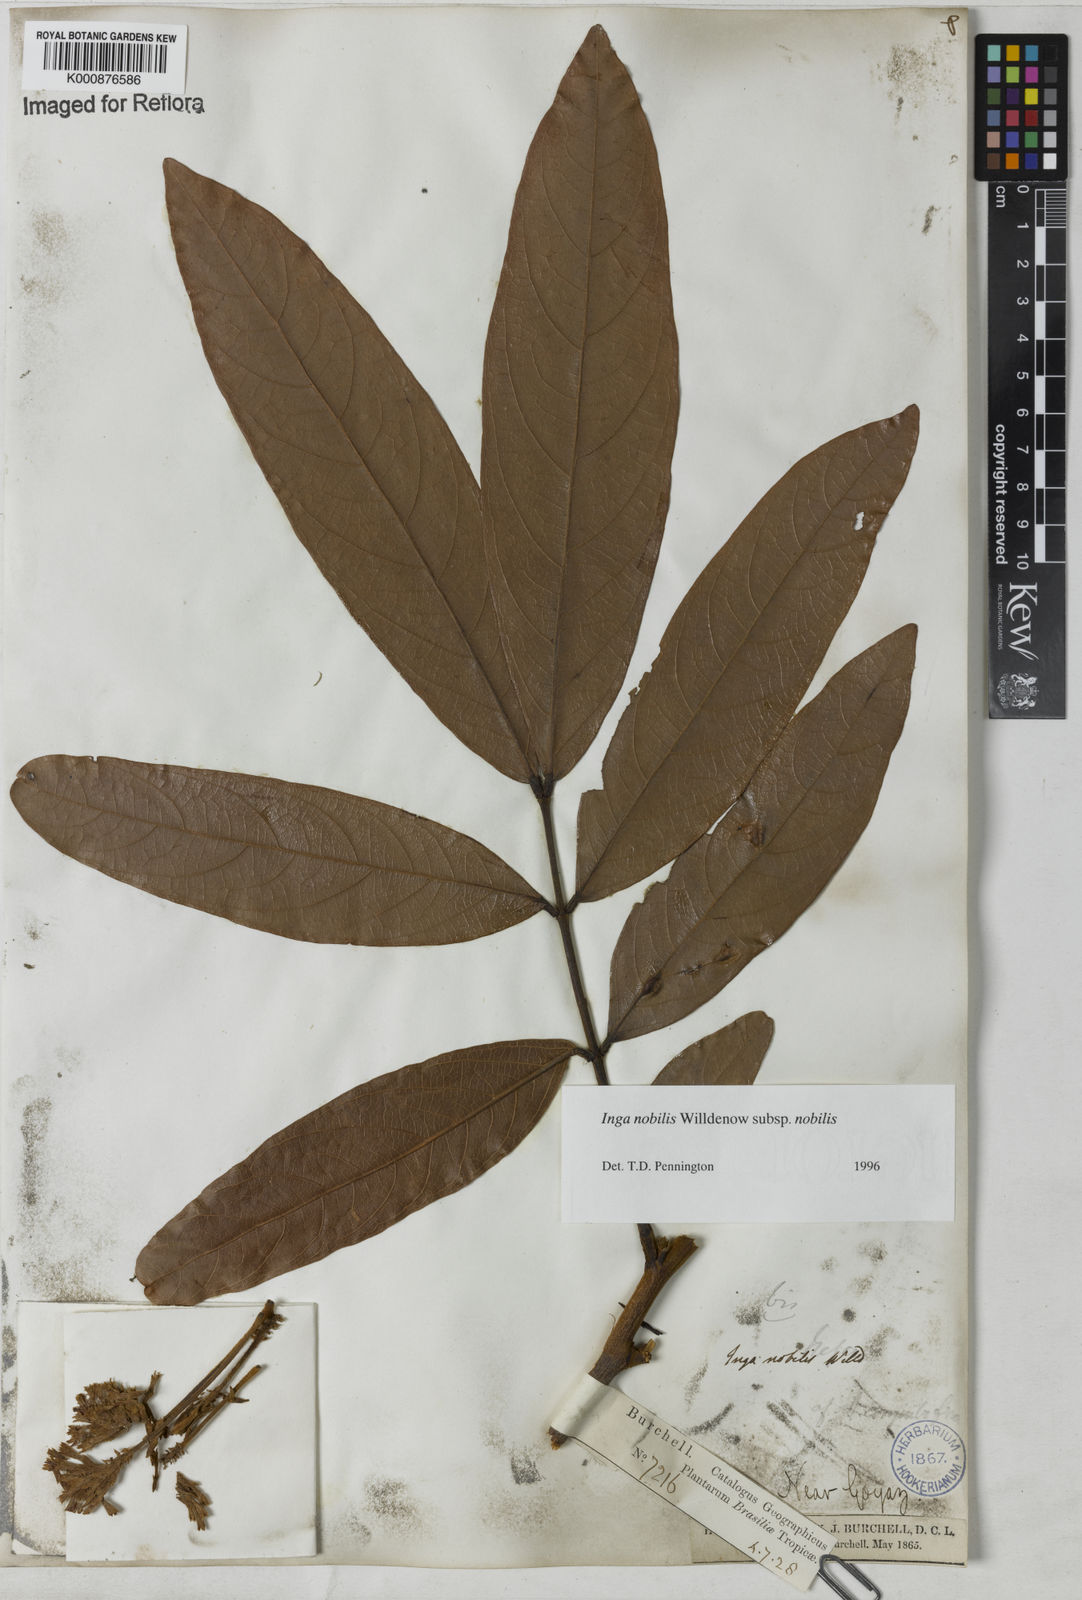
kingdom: Plantae
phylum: Tracheophyta
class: Magnoliopsida
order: Fabales
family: Fabaceae
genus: Inga
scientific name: Inga nobilis
